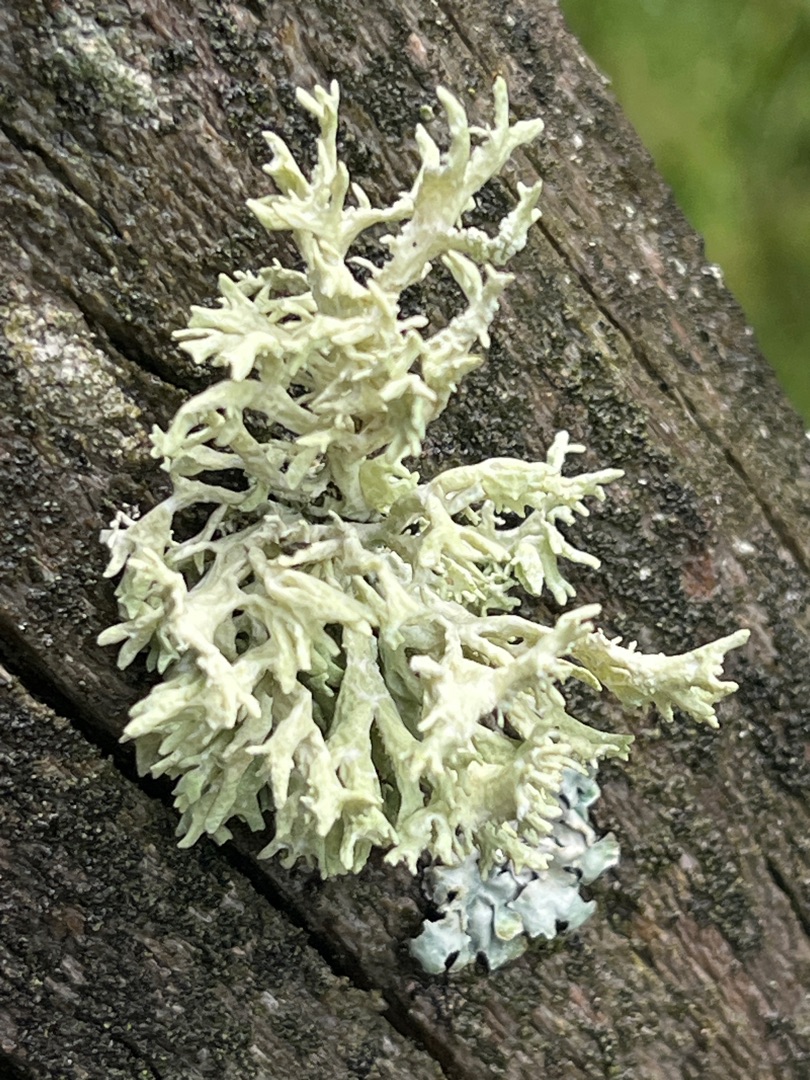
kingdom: Fungi
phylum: Ascomycota
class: Lecanoromycetes
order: Lecanorales
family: Parmeliaceae
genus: Evernia
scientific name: Evernia prunastri
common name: Almindelig slåenlav
